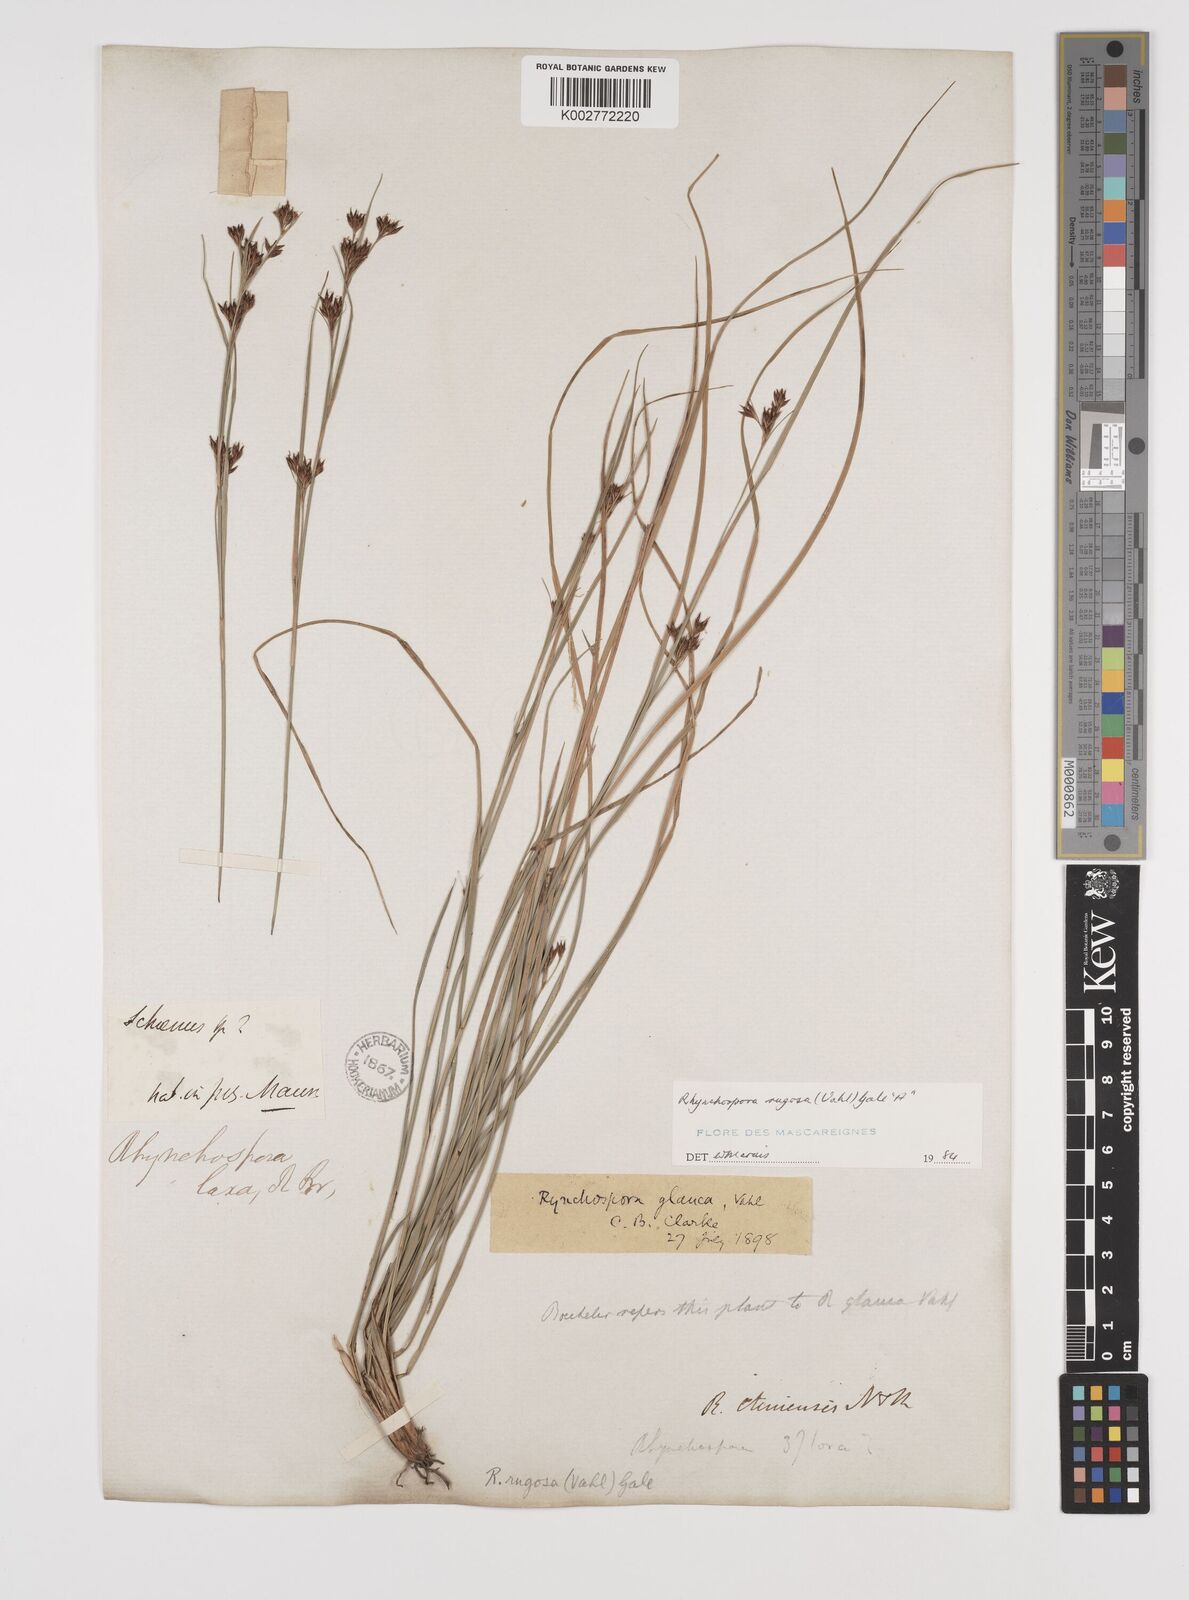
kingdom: Plantae
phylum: Tracheophyta
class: Liliopsida
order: Poales
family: Cyperaceae
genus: Rhynchospora
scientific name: Rhynchospora rugosa
